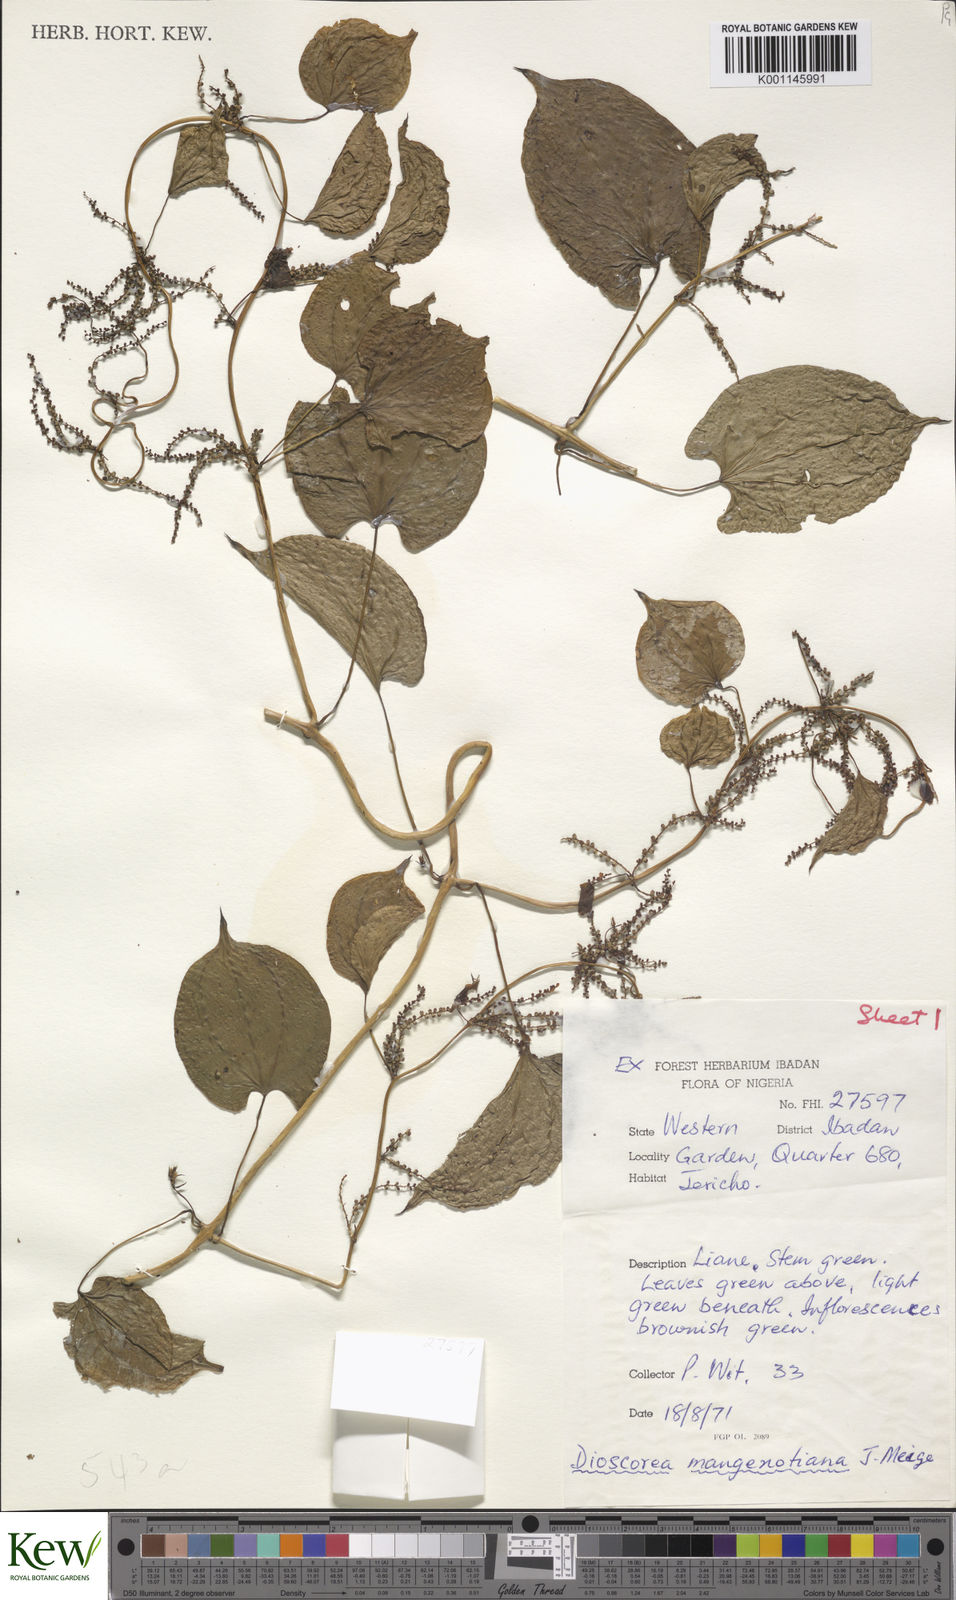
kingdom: Plantae
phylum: Tracheophyta
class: Liliopsida
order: Dioscoreales
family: Dioscoreaceae
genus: Dioscorea
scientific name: Dioscorea
